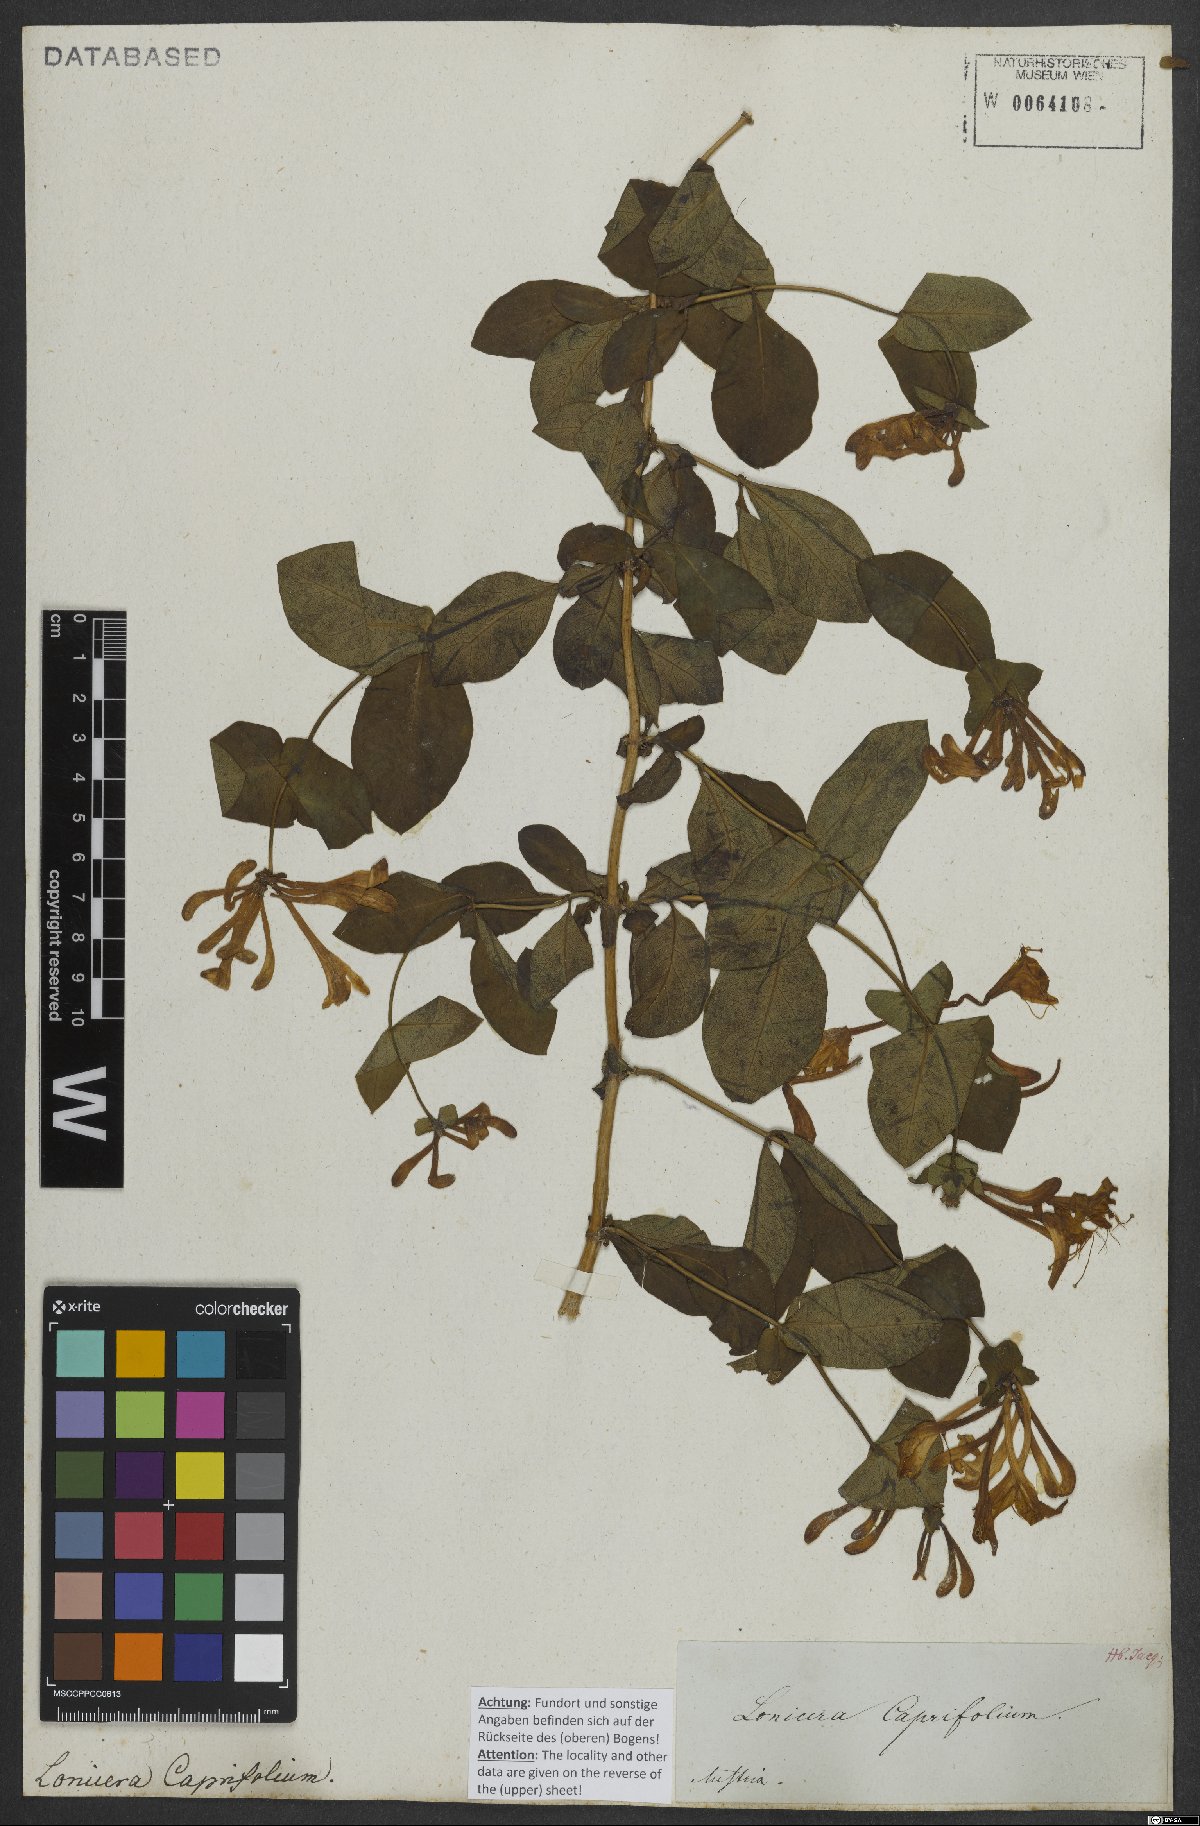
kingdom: Plantae
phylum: Tracheophyta
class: Magnoliopsida
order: Dipsacales
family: Caprifoliaceae
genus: Lonicera
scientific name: Lonicera caprifolium
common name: Perfoliate honeysuckle
